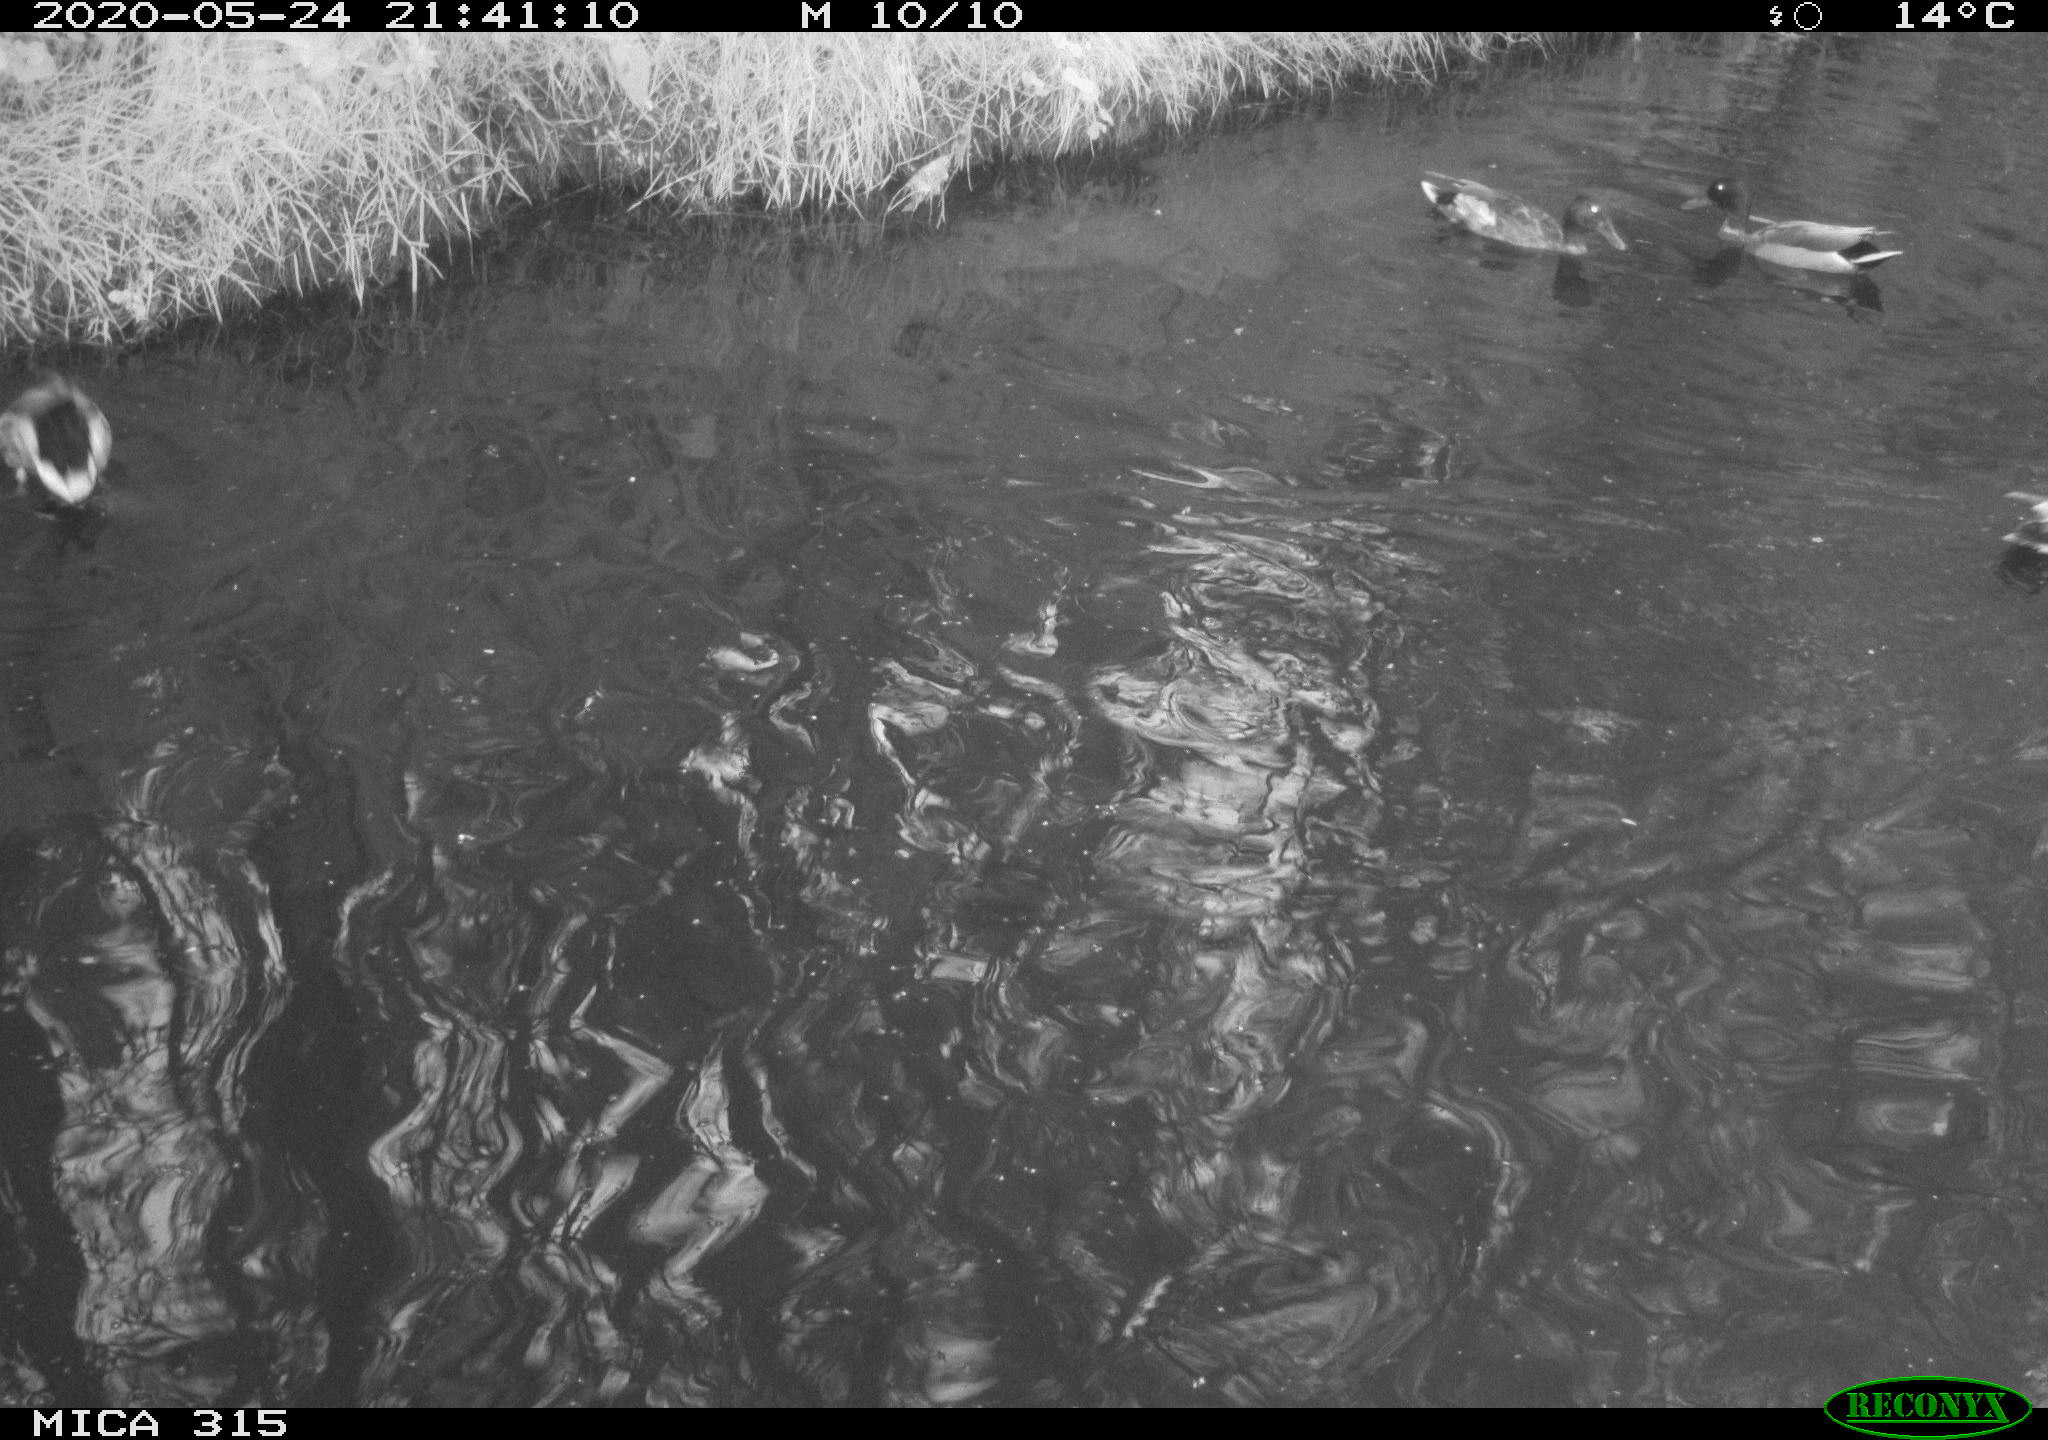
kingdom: Animalia
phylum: Chordata
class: Aves
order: Anseriformes
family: Anatidae
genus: Anas
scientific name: Anas platyrhynchos
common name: Mallard
